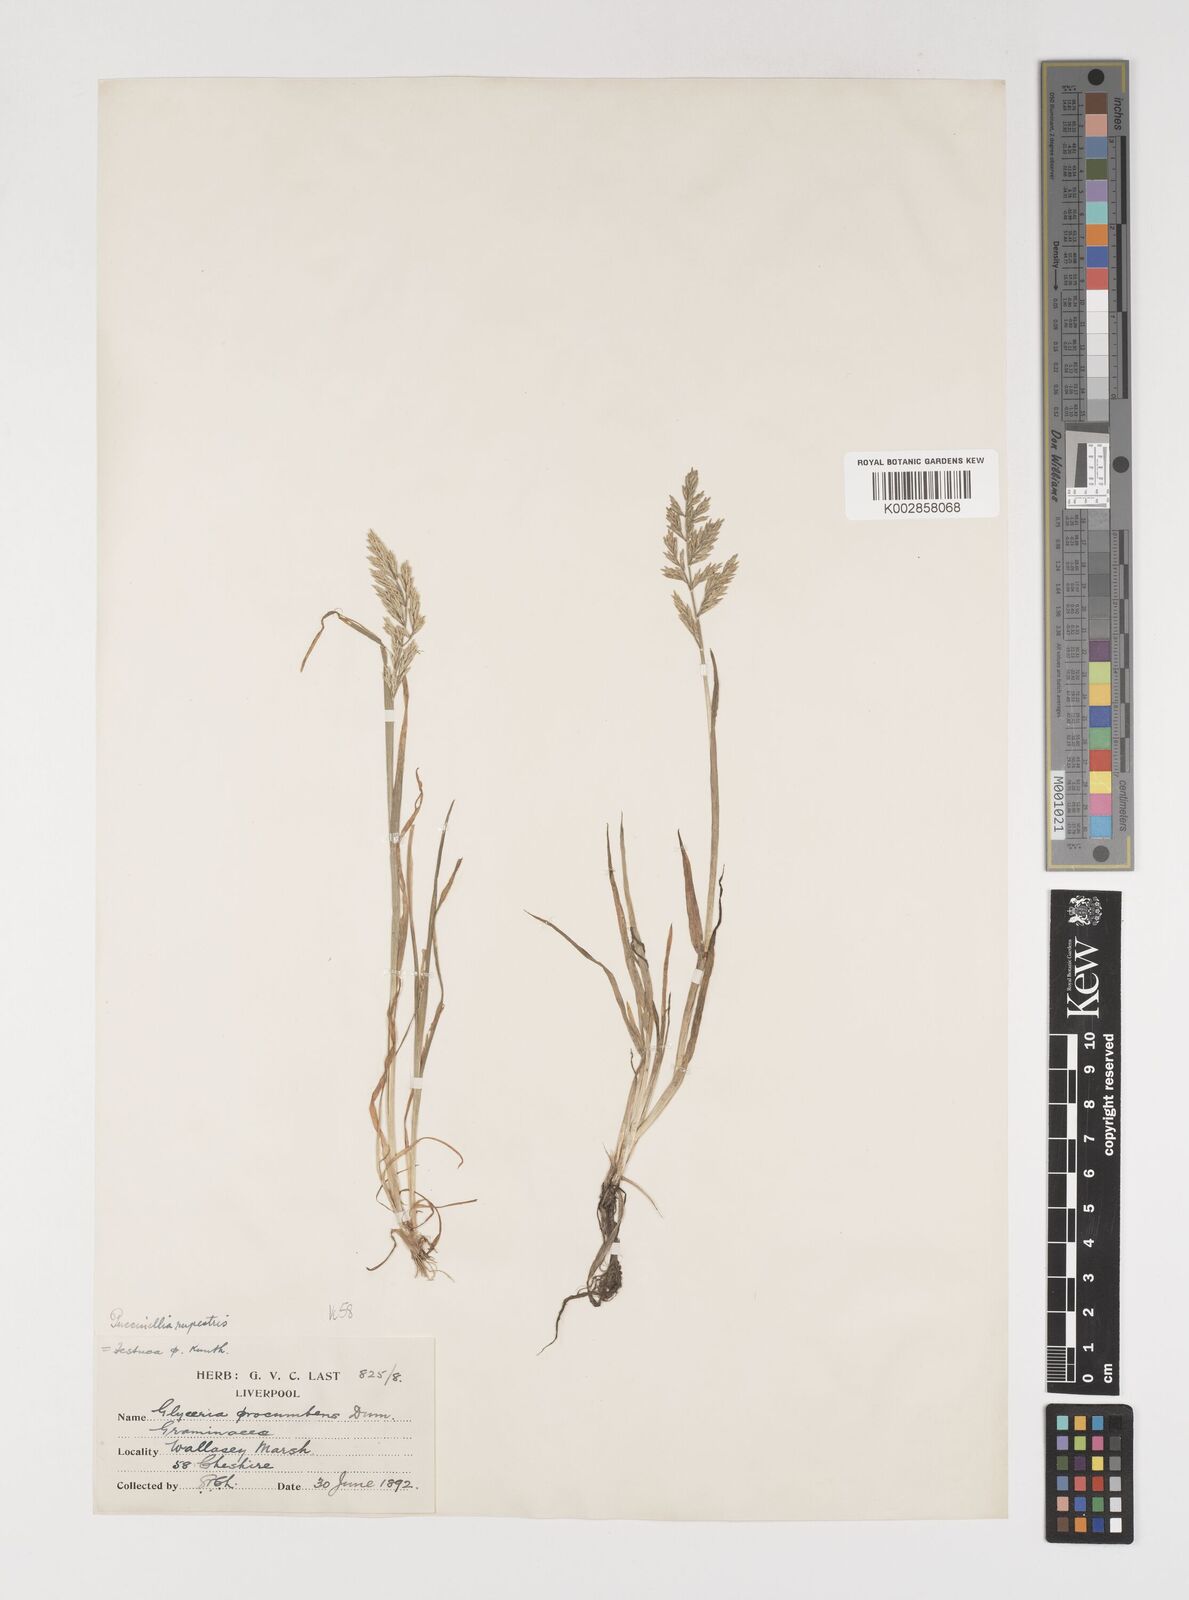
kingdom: Plantae
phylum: Tracheophyta
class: Liliopsida
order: Poales
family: Poaceae
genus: Puccinellia
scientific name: Puccinellia rupestris
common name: Stiff saltmarsh-grass
